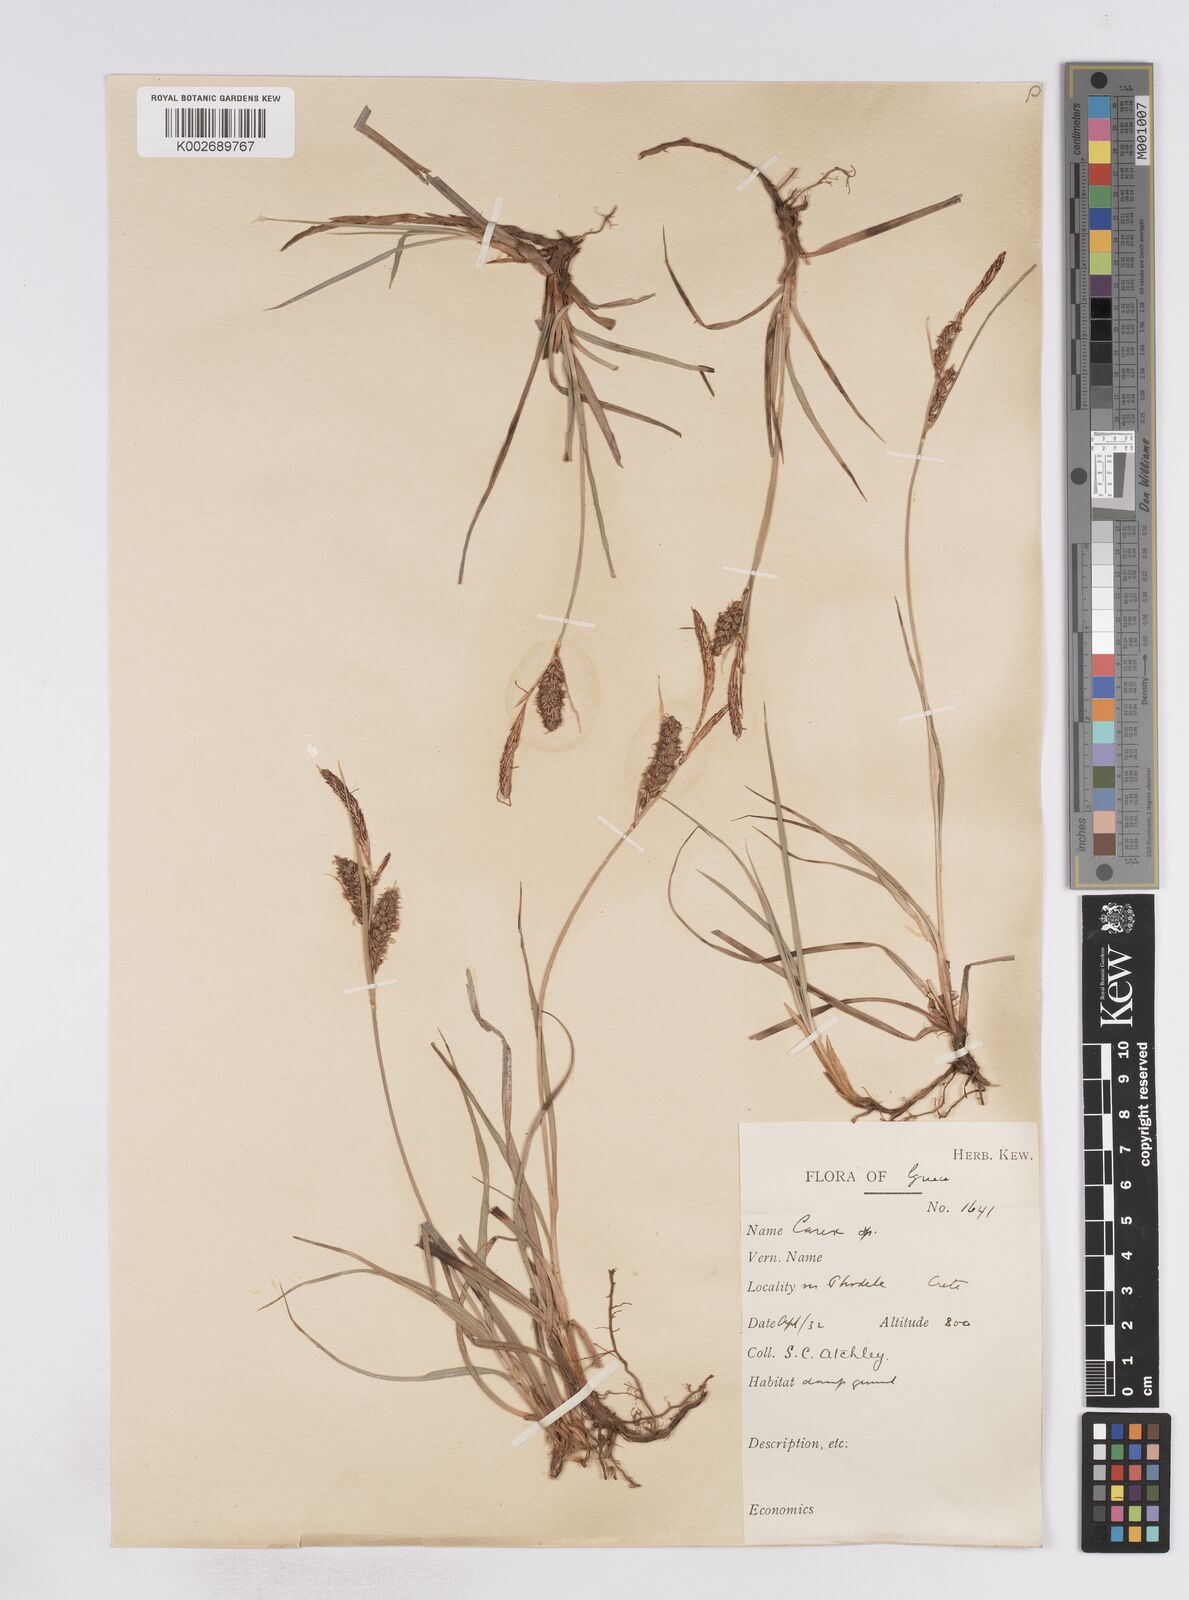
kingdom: Plantae
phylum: Tracheophyta
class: Liliopsida
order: Poales
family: Cyperaceae
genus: Carex
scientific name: Carex flacca
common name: Glaucous sedge
